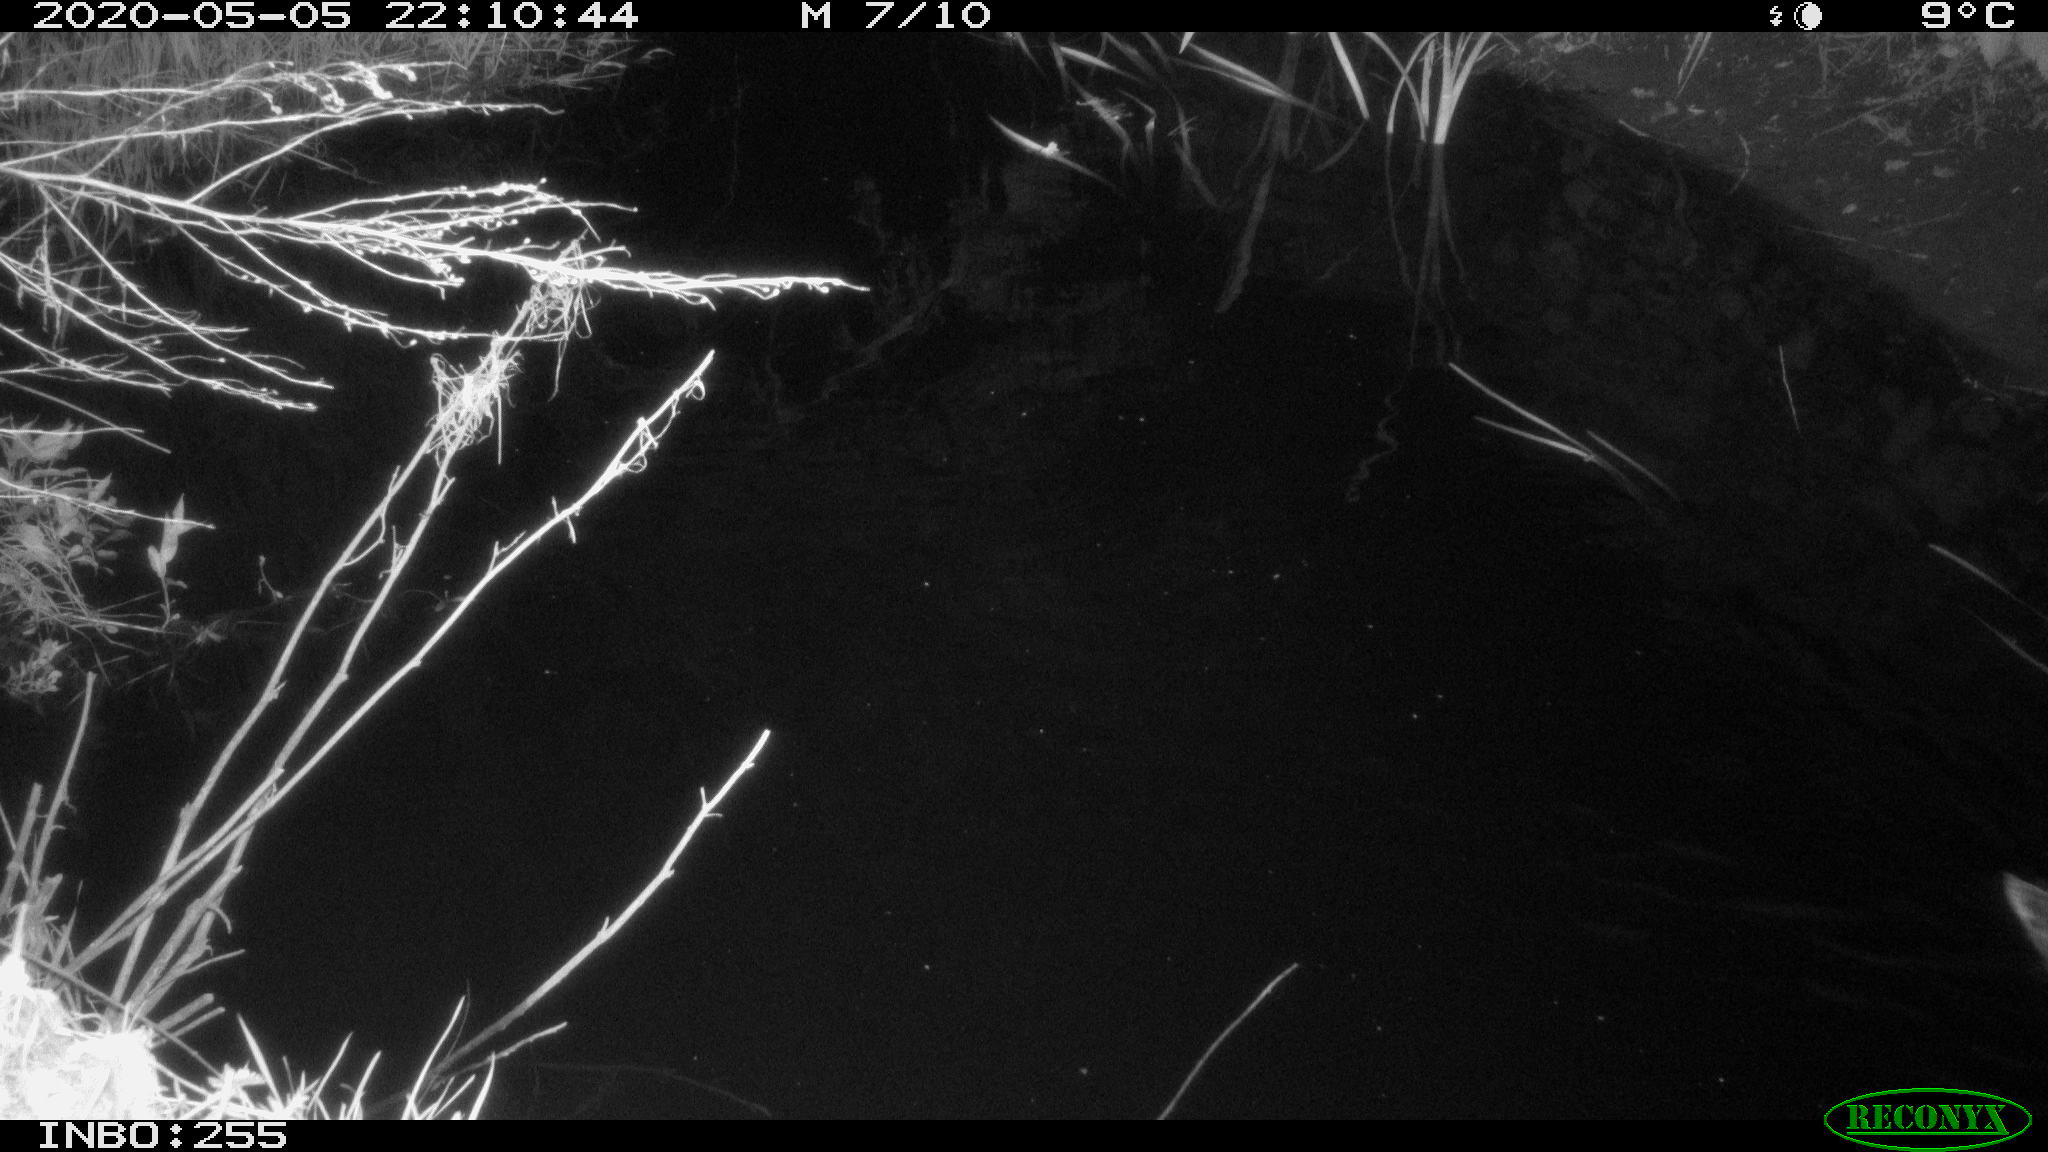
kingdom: Animalia
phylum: Chordata
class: Aves
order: Anseriformes
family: Anatidae
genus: Anas
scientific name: Anas platyrhynchos
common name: Mallard
